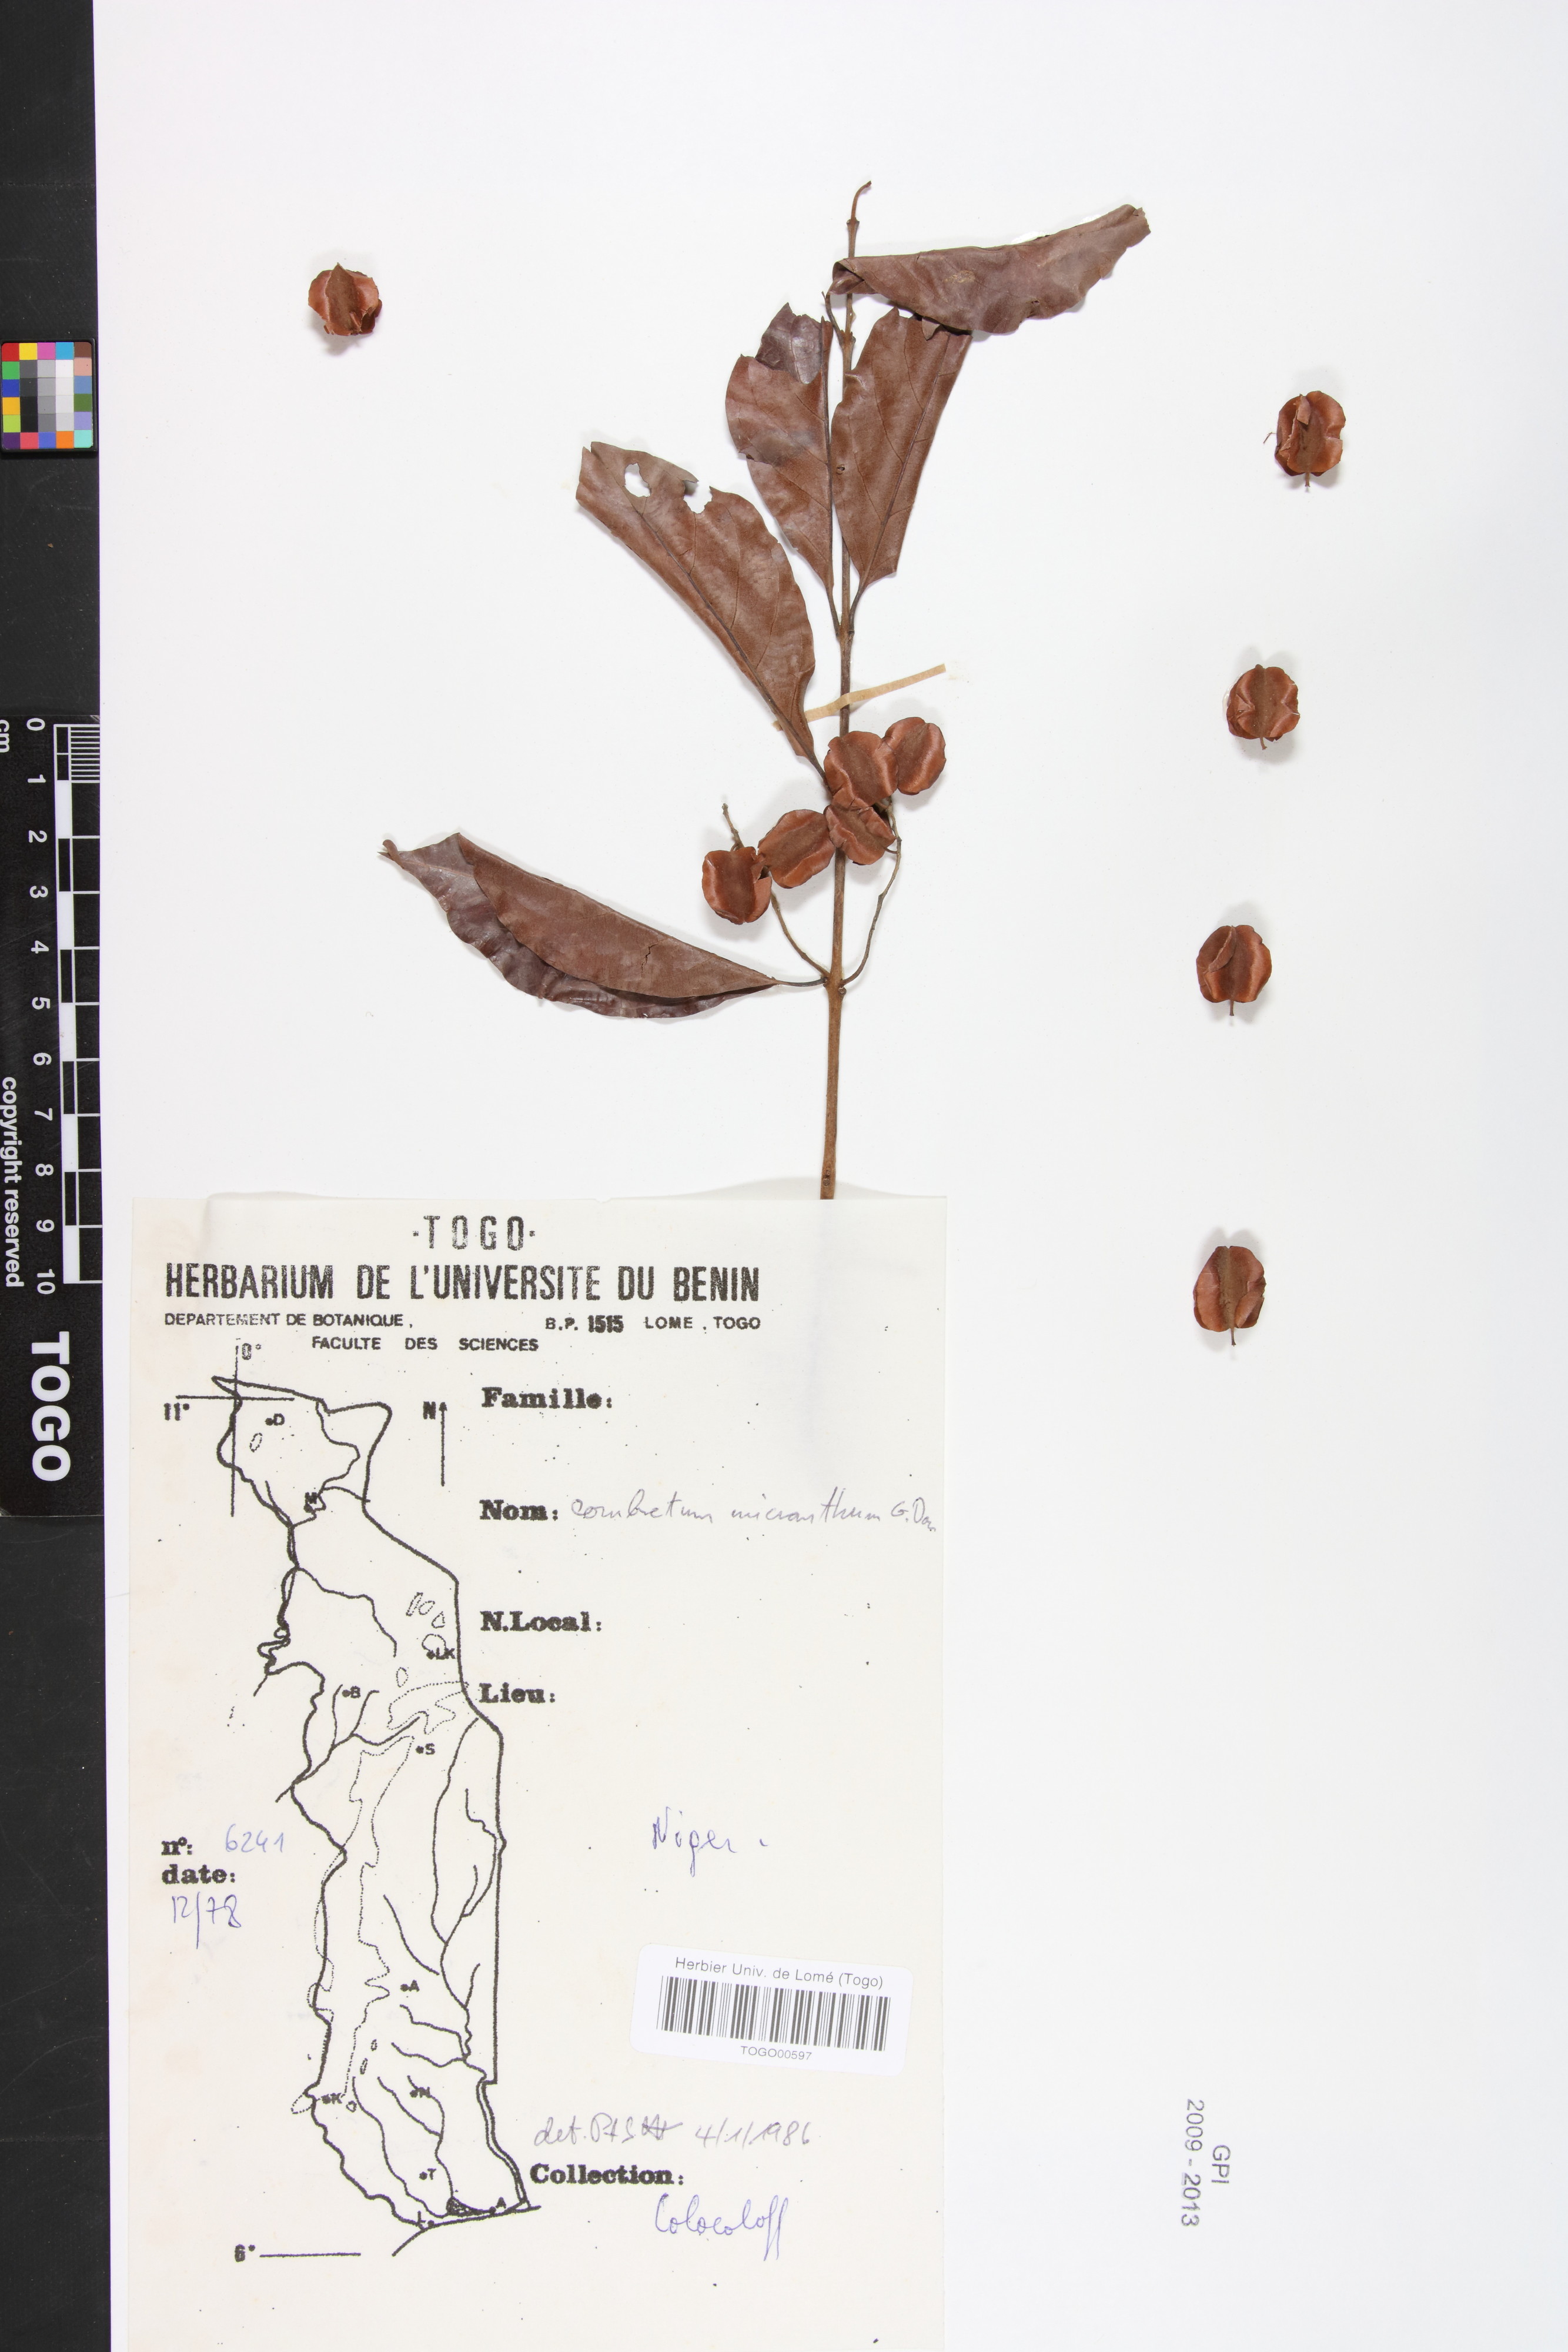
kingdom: Plantae
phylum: Tracheophyta
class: Magnoliopsida
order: Myrtales
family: Combretaceae
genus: Combretum
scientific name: Combretum micranthum
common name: Opium-antidote
